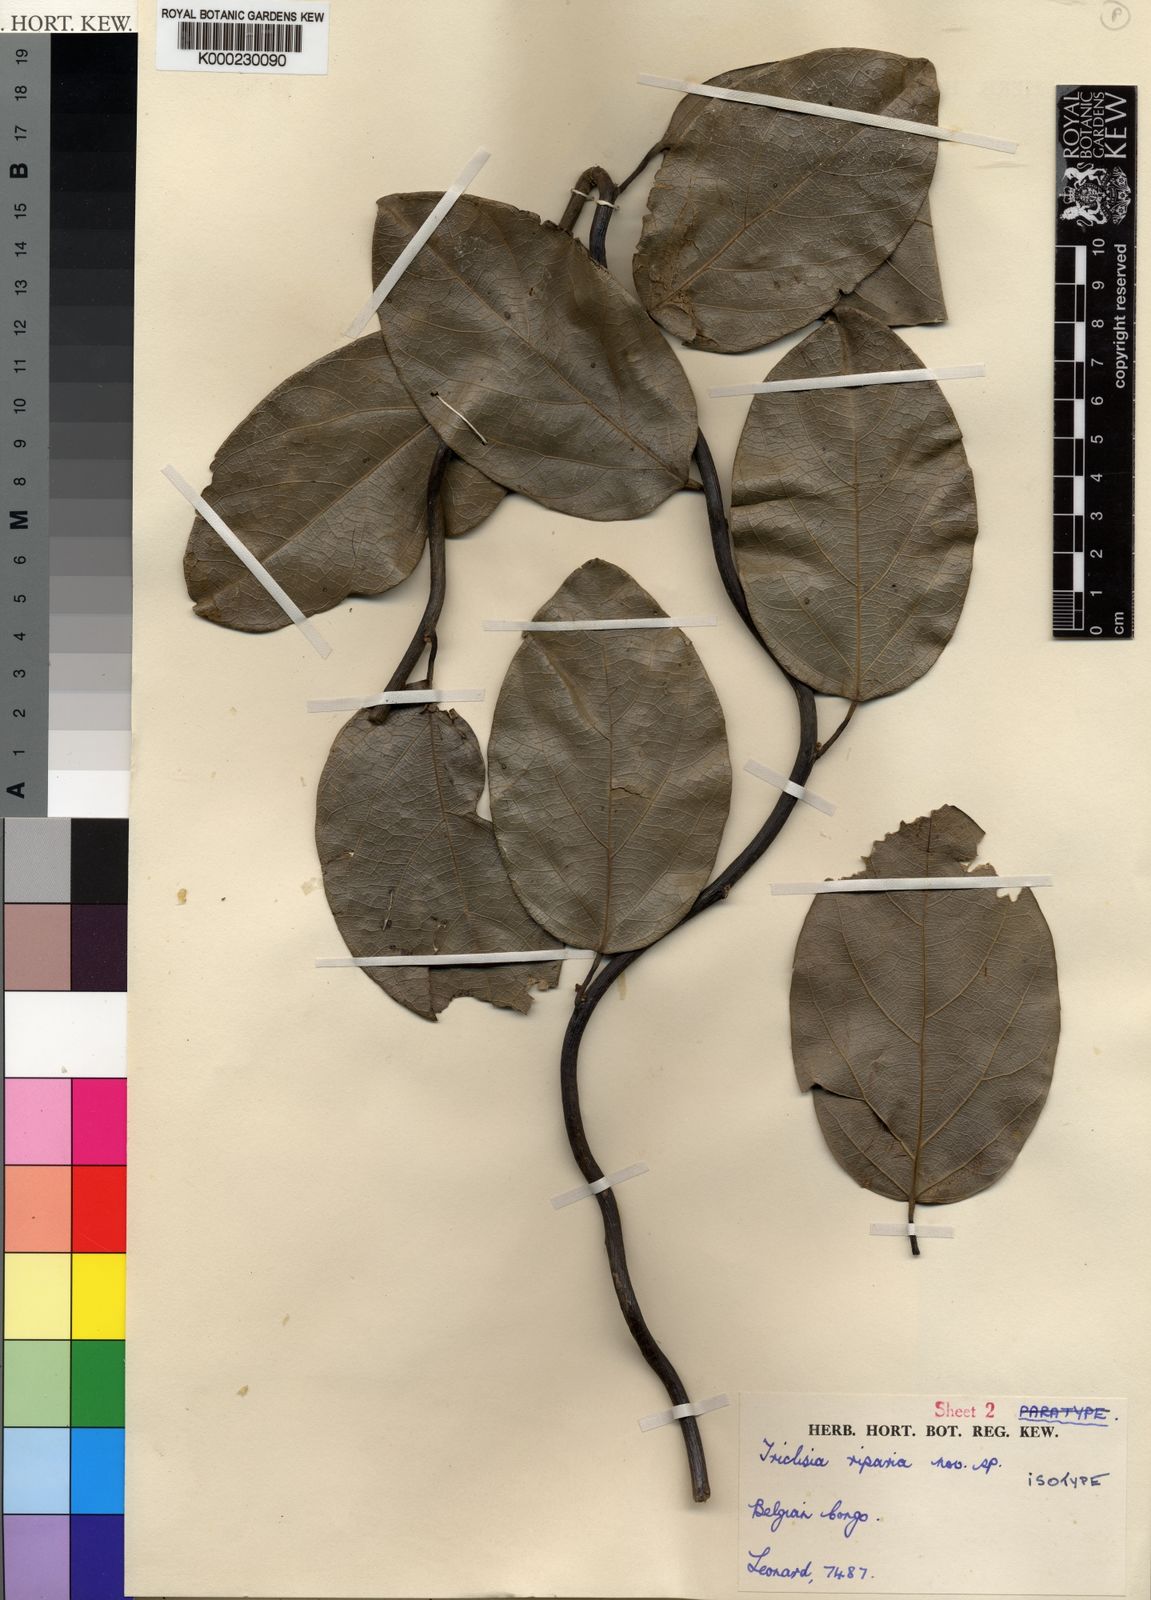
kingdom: Plantae
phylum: Tracheophyta
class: Magnoliopsida
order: Ranunculales
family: Menispermaceae
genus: Triclisia
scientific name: Triclisia riparia
